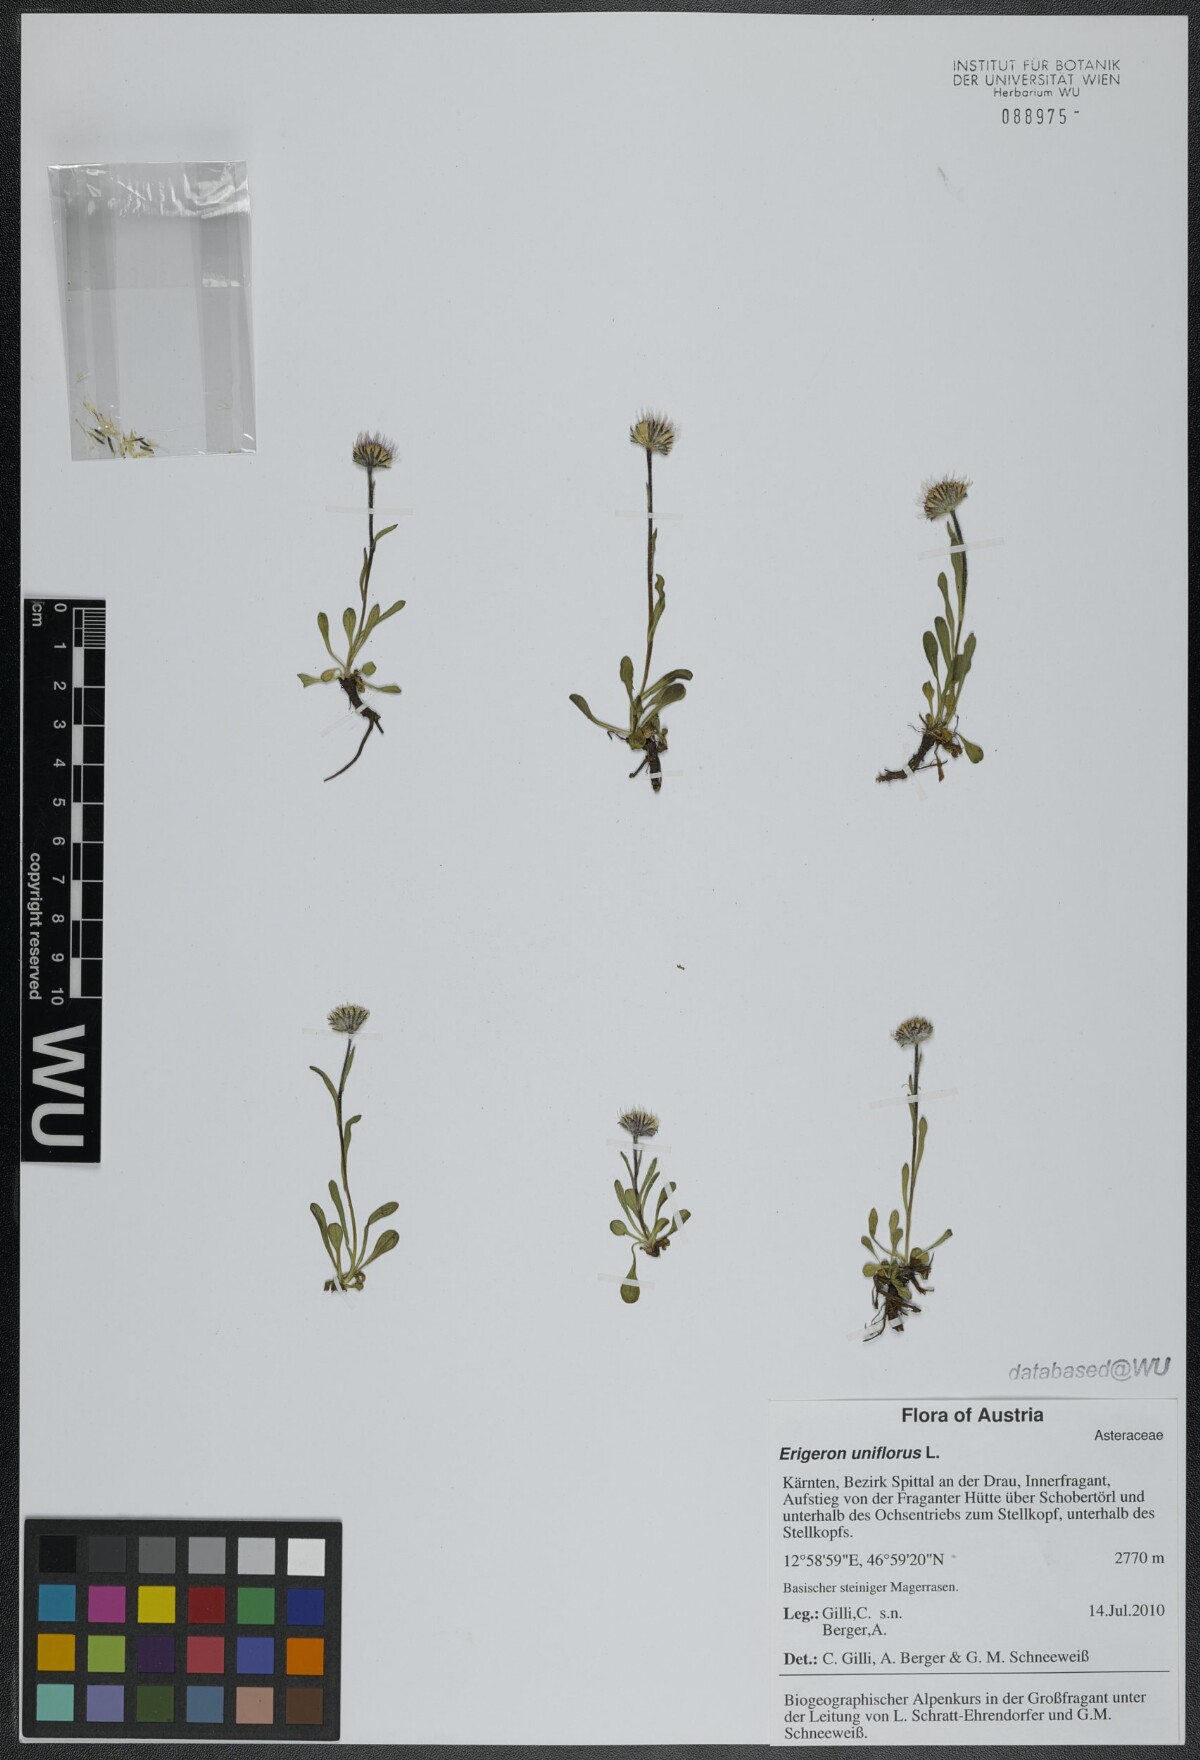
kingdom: Plantae
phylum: Tracheophyta
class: Magnoliopsida
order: Asterales
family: Asteraceae
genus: Erigeron
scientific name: Erigeron uniflorus
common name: Northern daisy
